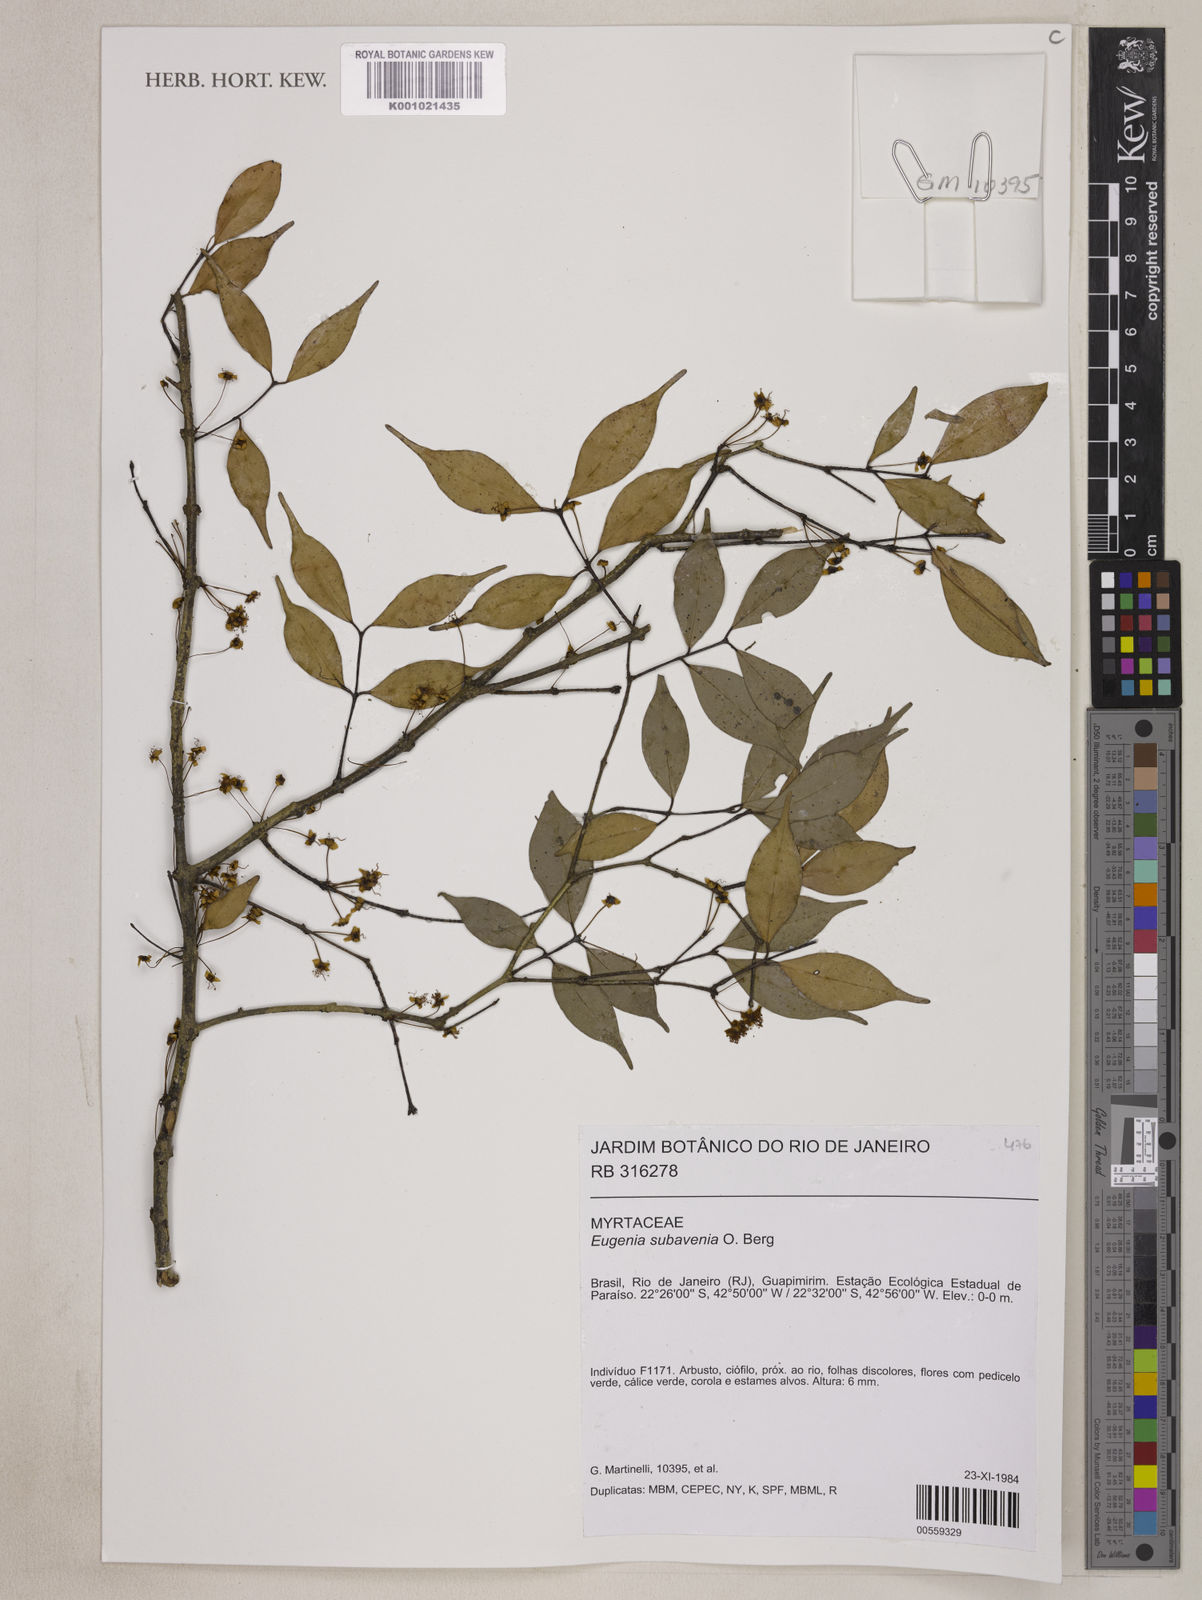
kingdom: Plantae
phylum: Tracheophyta
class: Magnoliopsida
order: Myrtales
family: Myrtaceae
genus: Eugenia
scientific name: Eugenia subavenia
